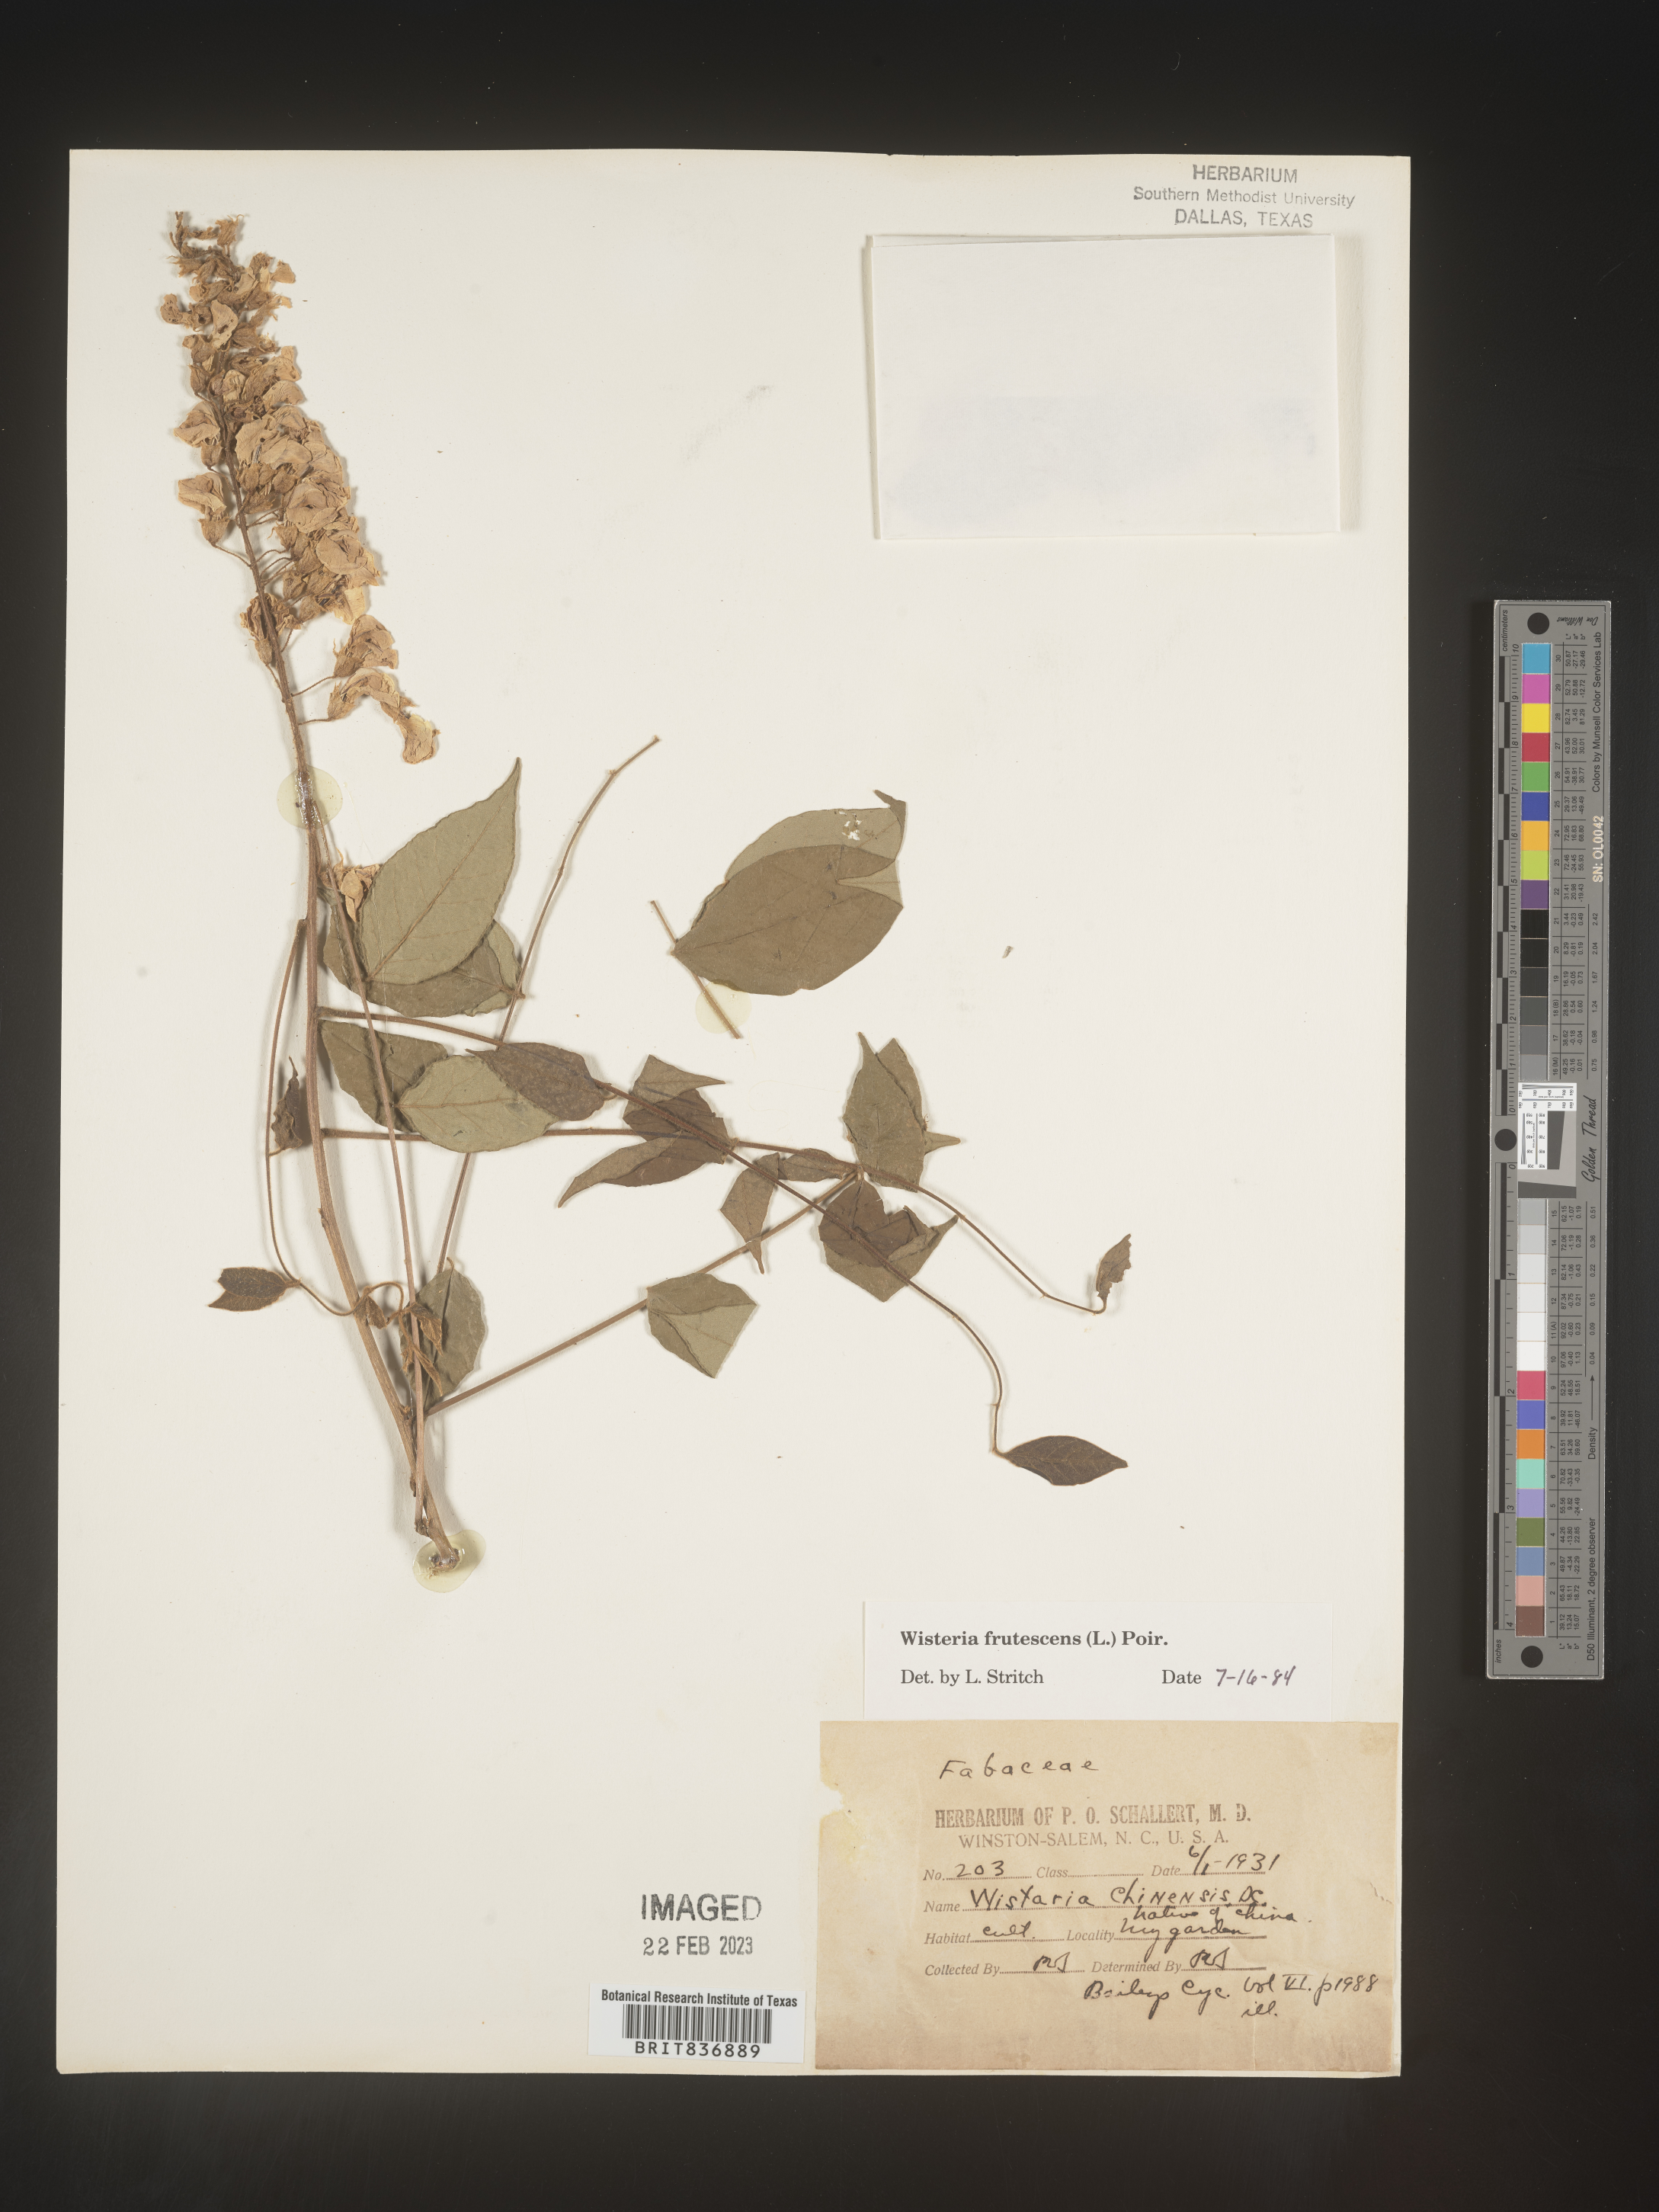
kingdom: Plantae
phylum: Tracheophyta
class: Magnoliopsida
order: Fabales
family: Fabaceae
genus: Wisteria
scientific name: Wisteria
